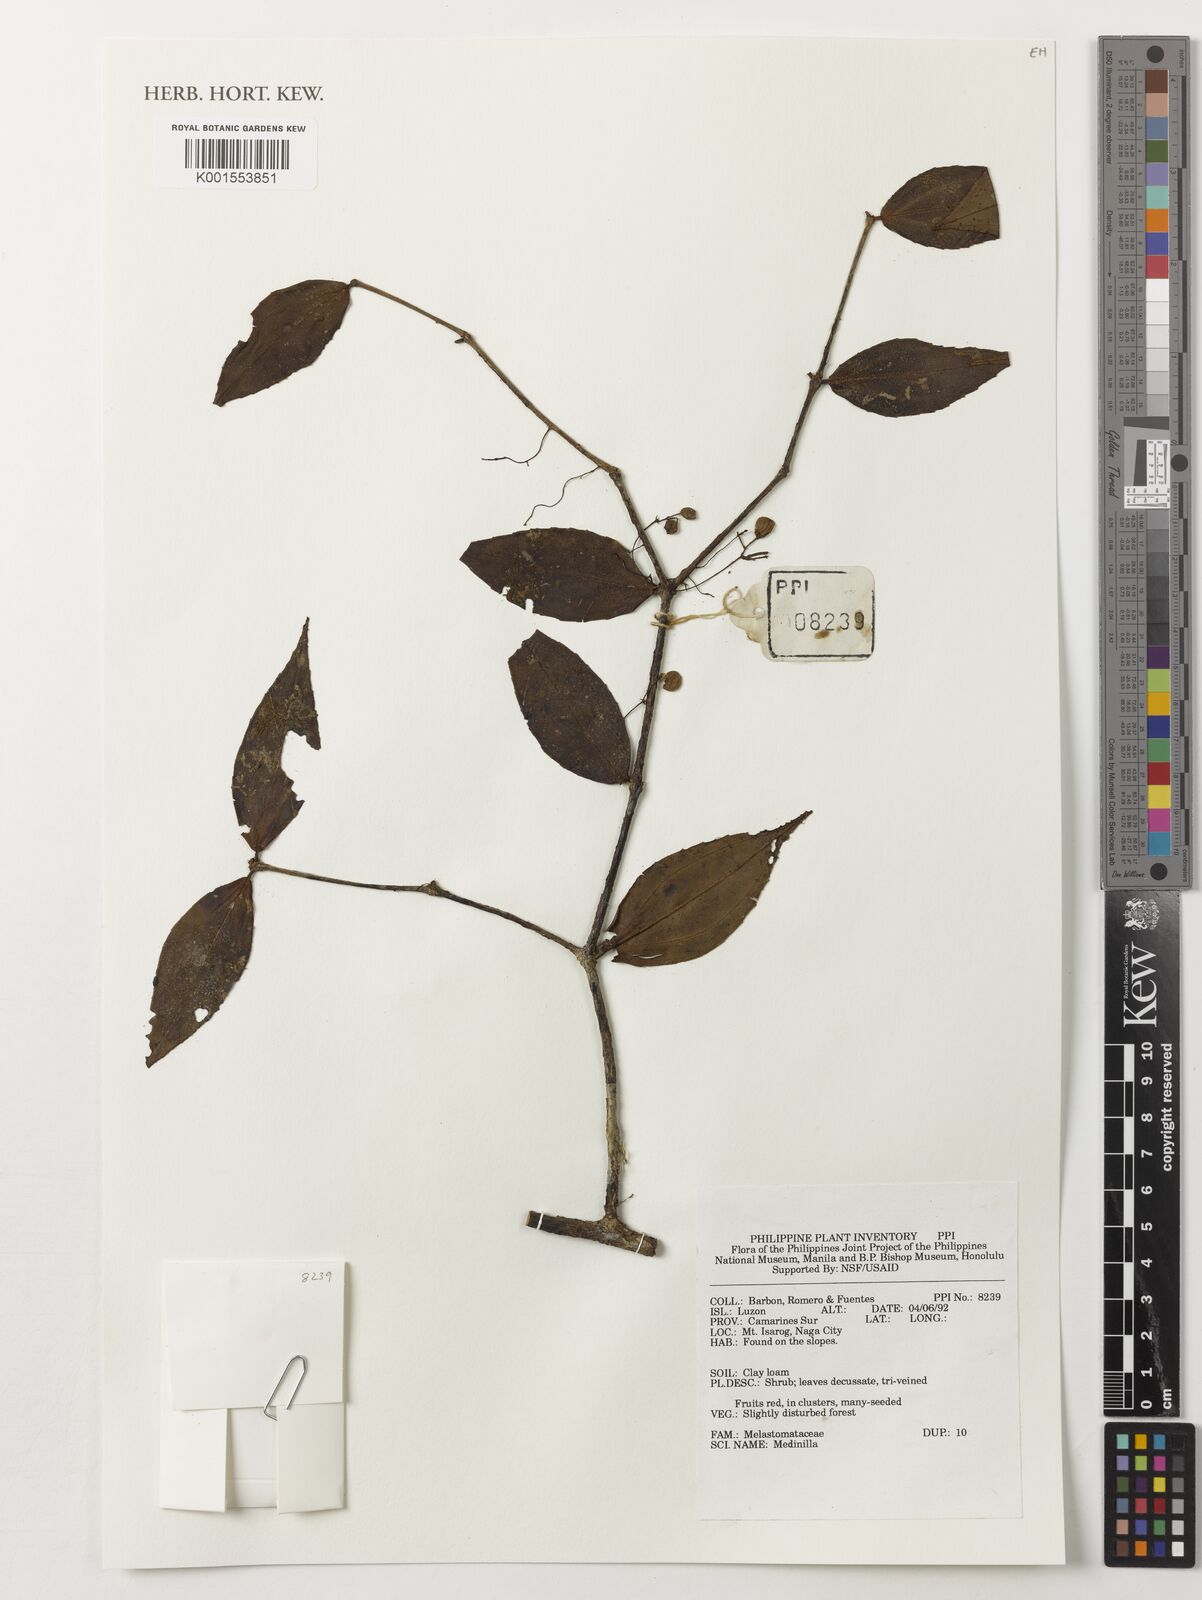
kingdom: Plantae
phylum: Tracheophyta
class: Magnoliopsida
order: Myrtales
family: Melastomataceae
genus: Medinilla
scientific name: Medinilla
